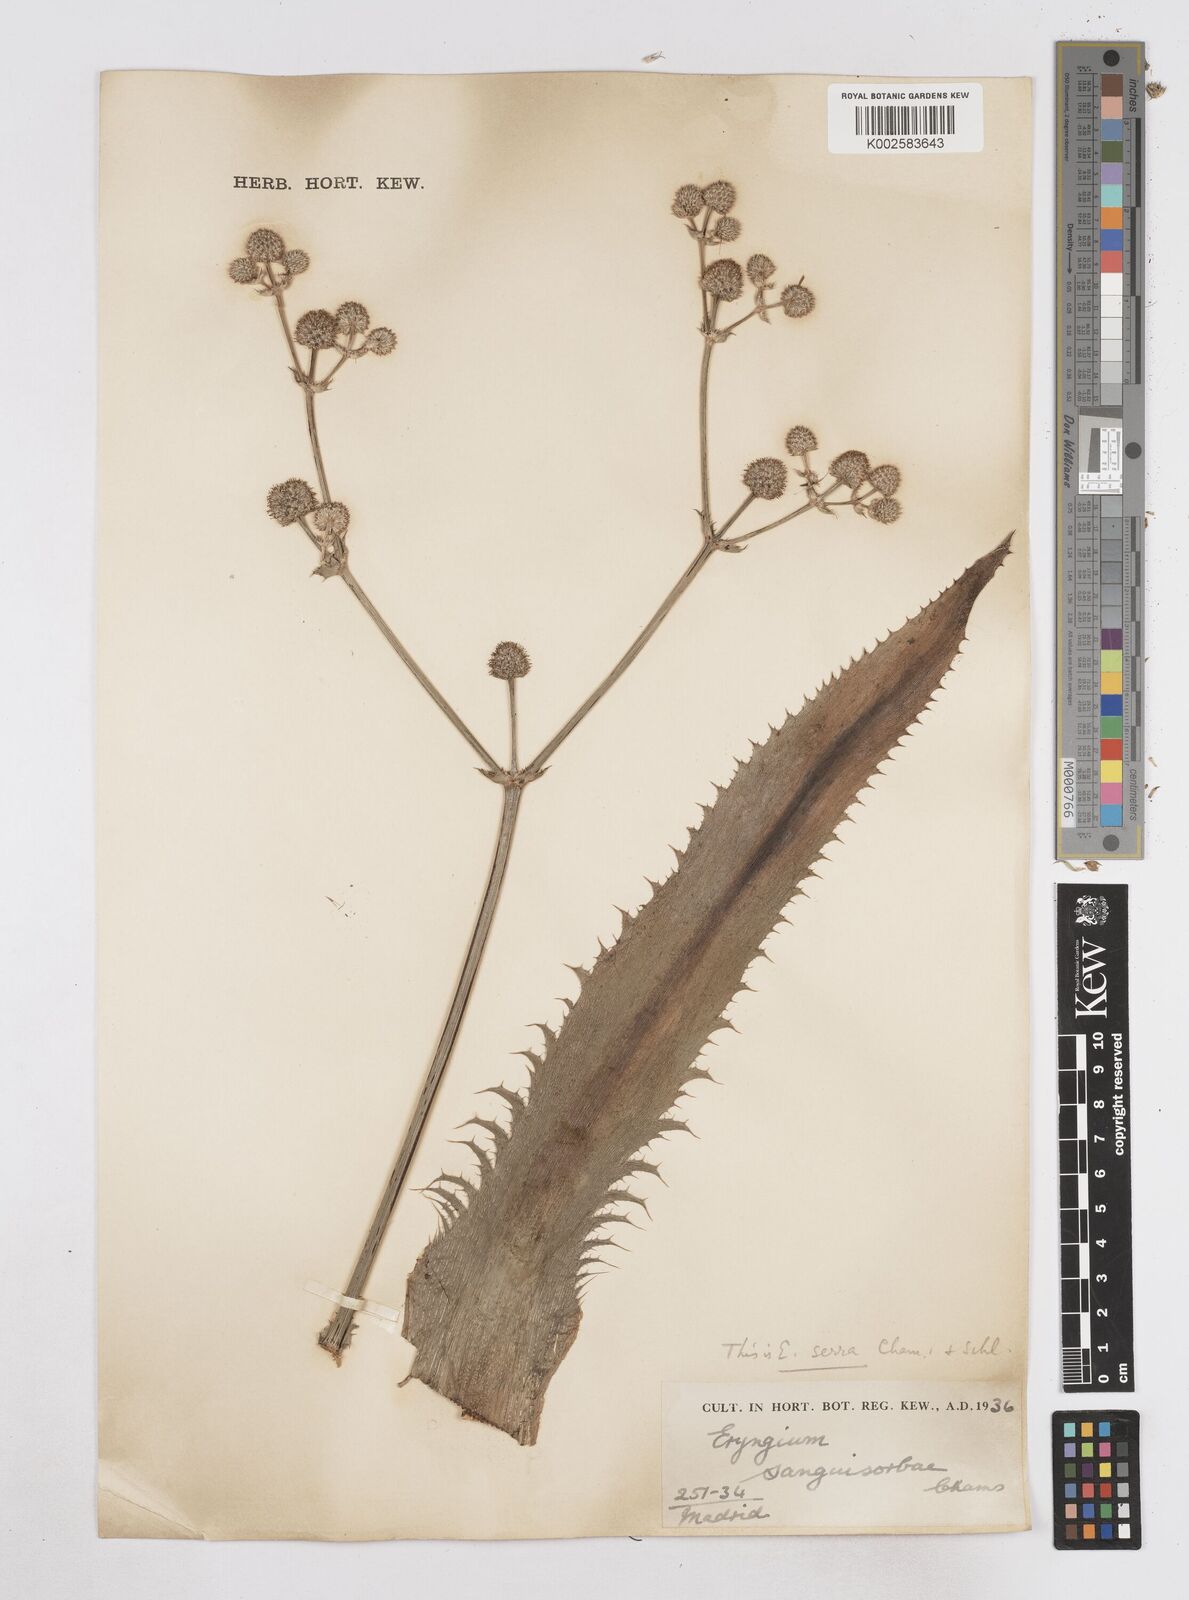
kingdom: Plantae
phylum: Tracheophyta
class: Magnoliopsida
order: Apiales
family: Apiaceae
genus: Eryngium
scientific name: Eryngium serra
